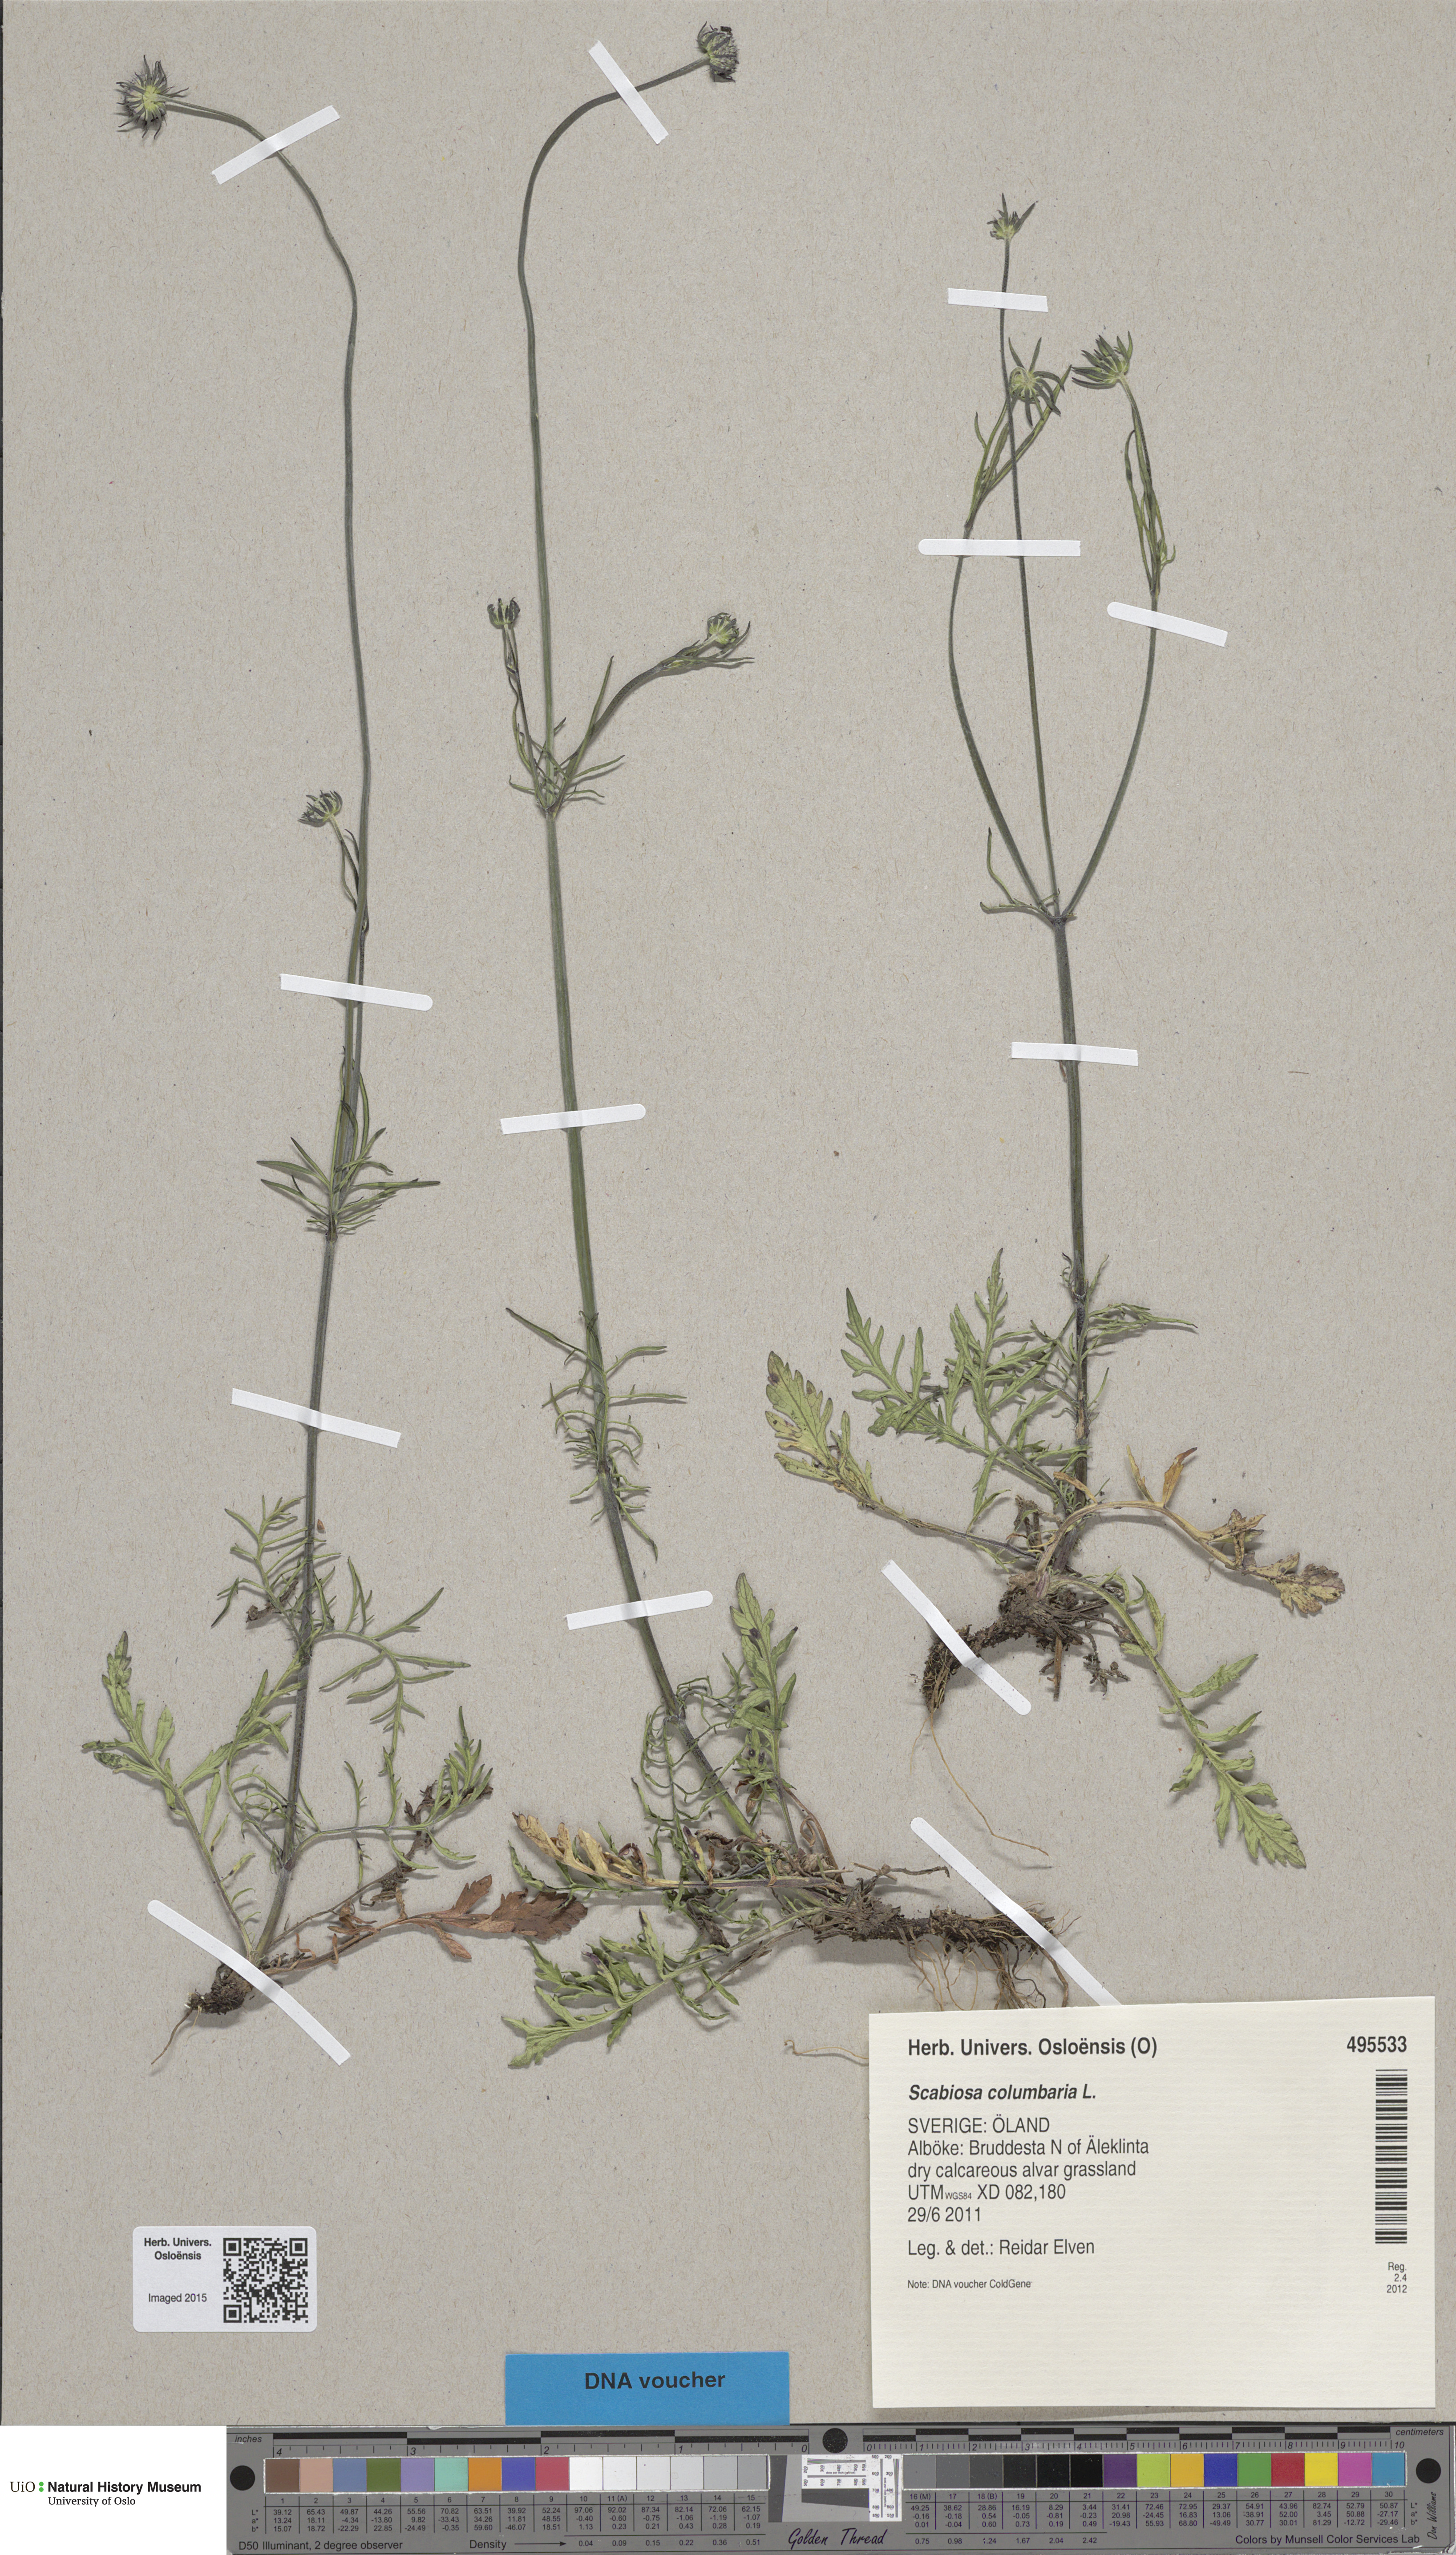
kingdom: Plantae
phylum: Tracheophyta
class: Magnoliopsida
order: Dipsacales
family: Caprifoliaceae
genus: Scabiosa
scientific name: Scabiosa columbaria
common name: Small scabious
